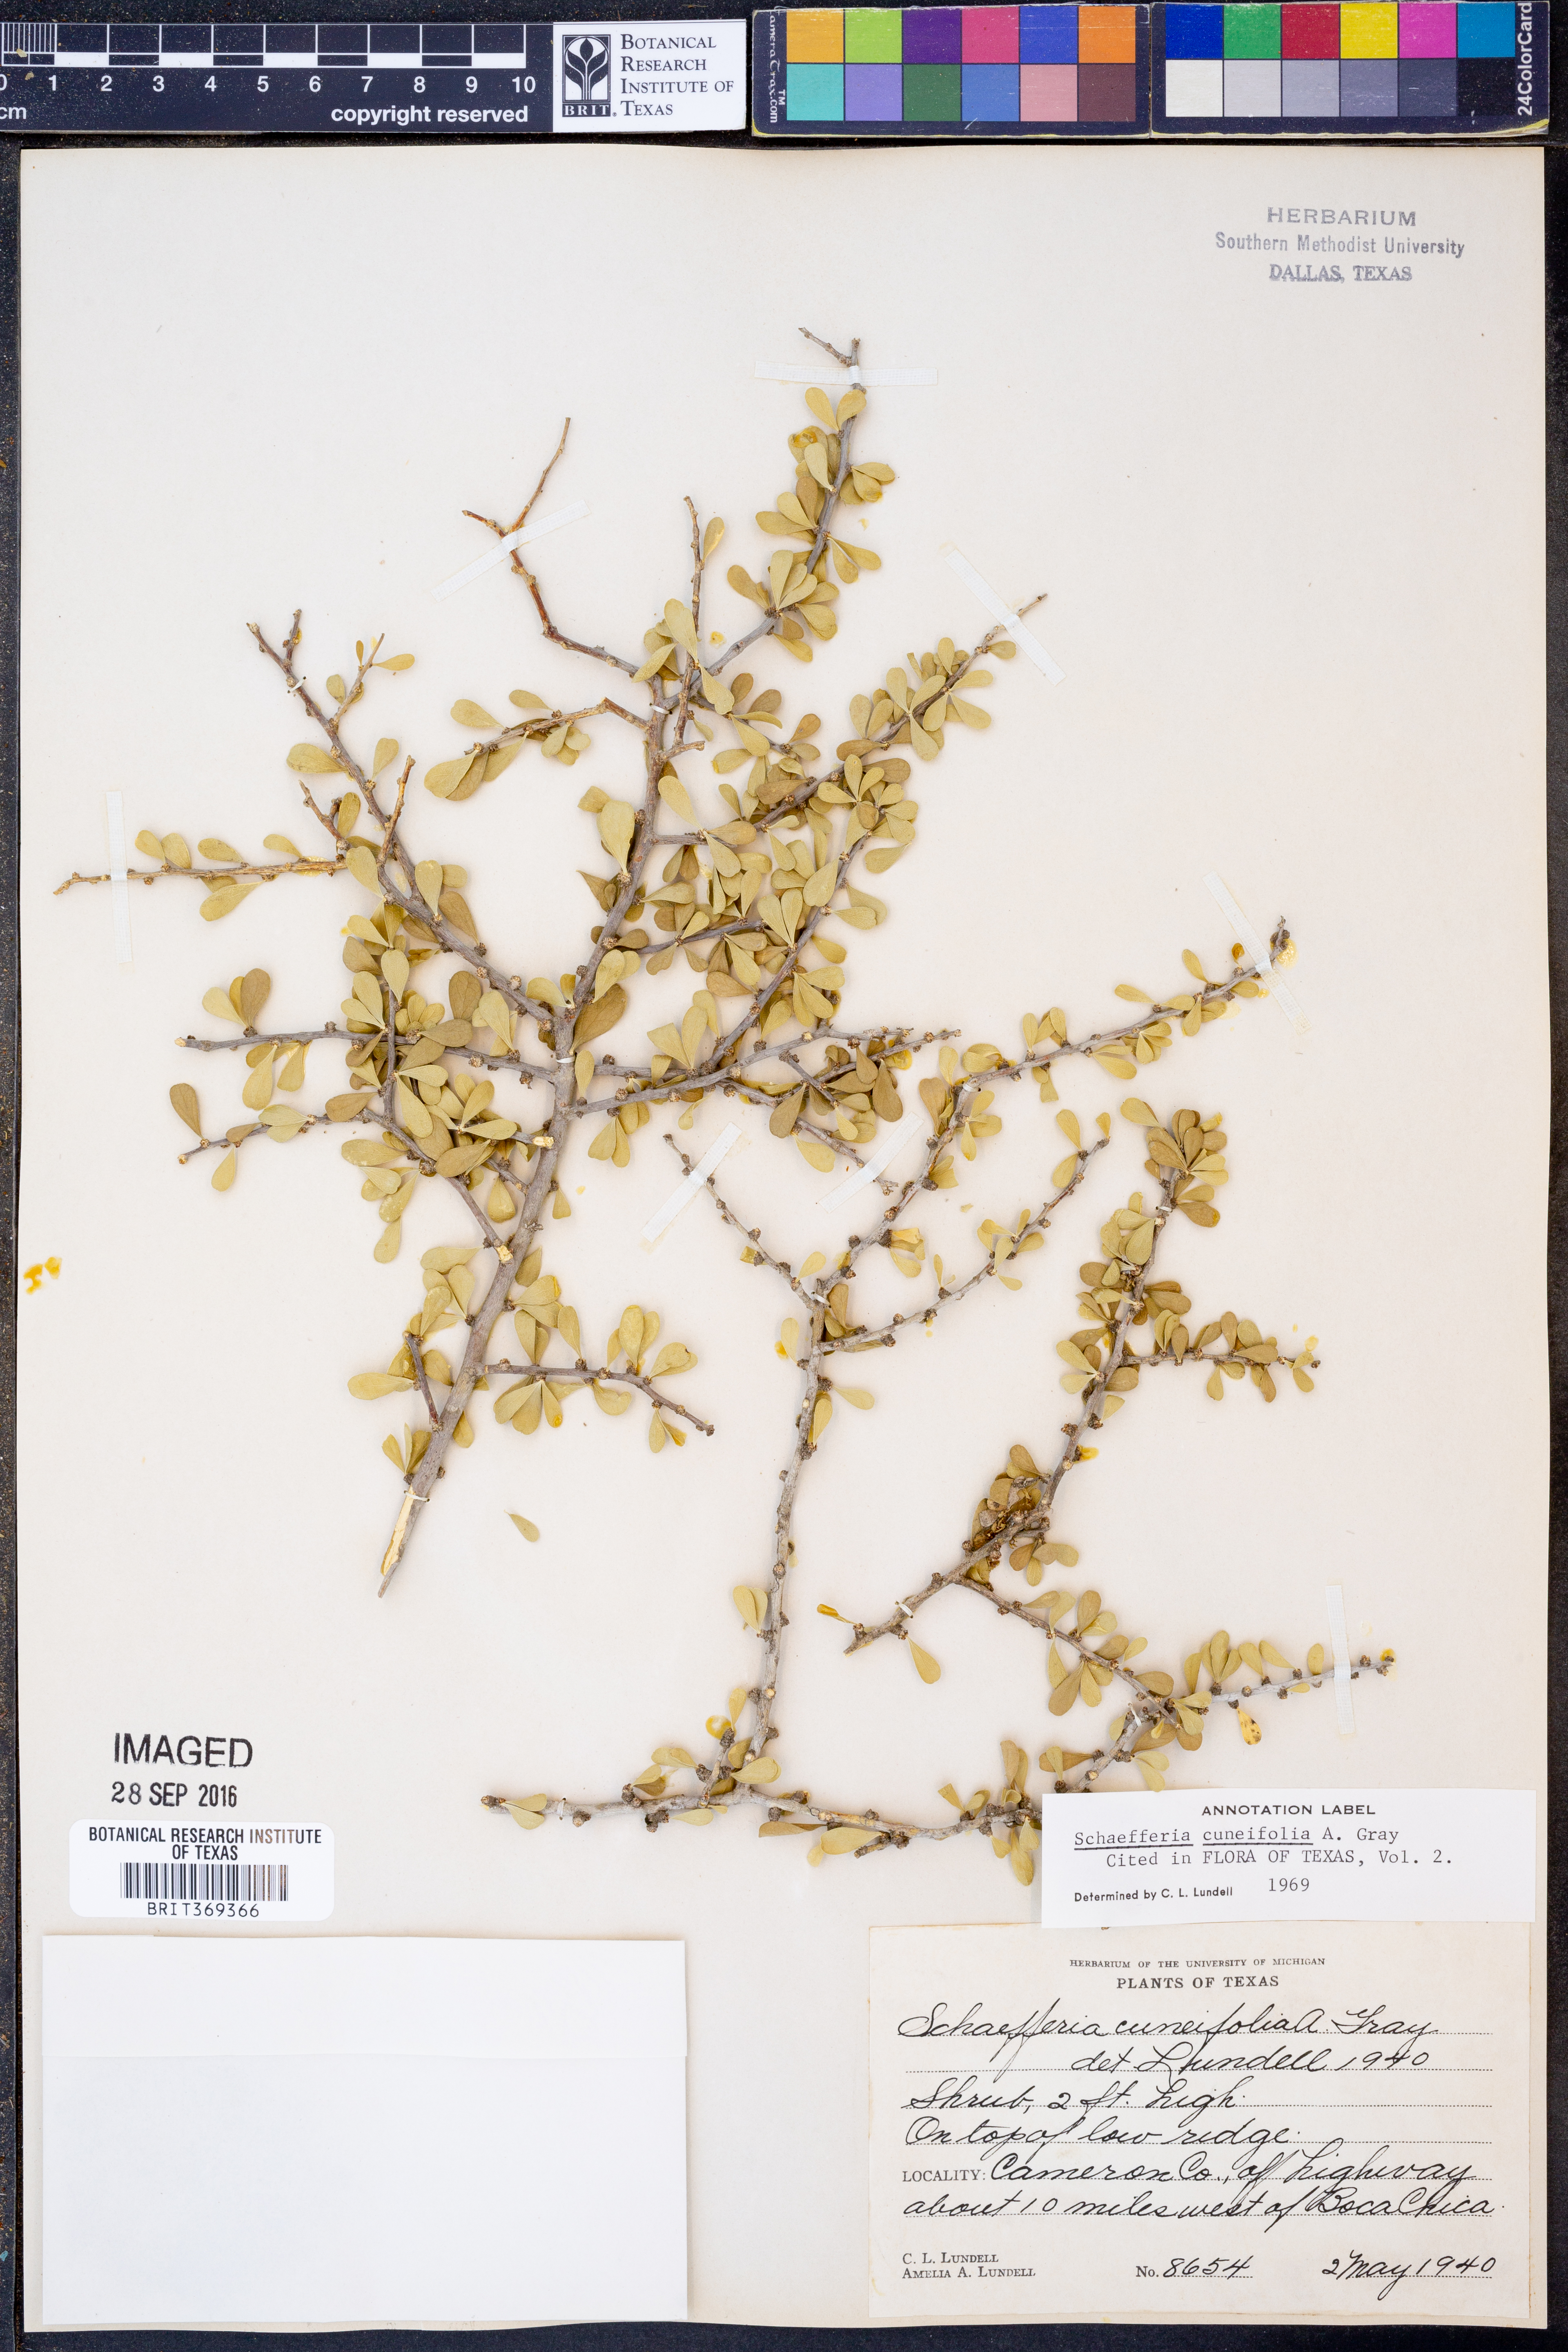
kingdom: Plantae
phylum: Tracheophyta
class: Magnoliopsida
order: Celastrales
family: Celastraceae
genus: Schaefferia
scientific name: Schaefferia cuneifolia
